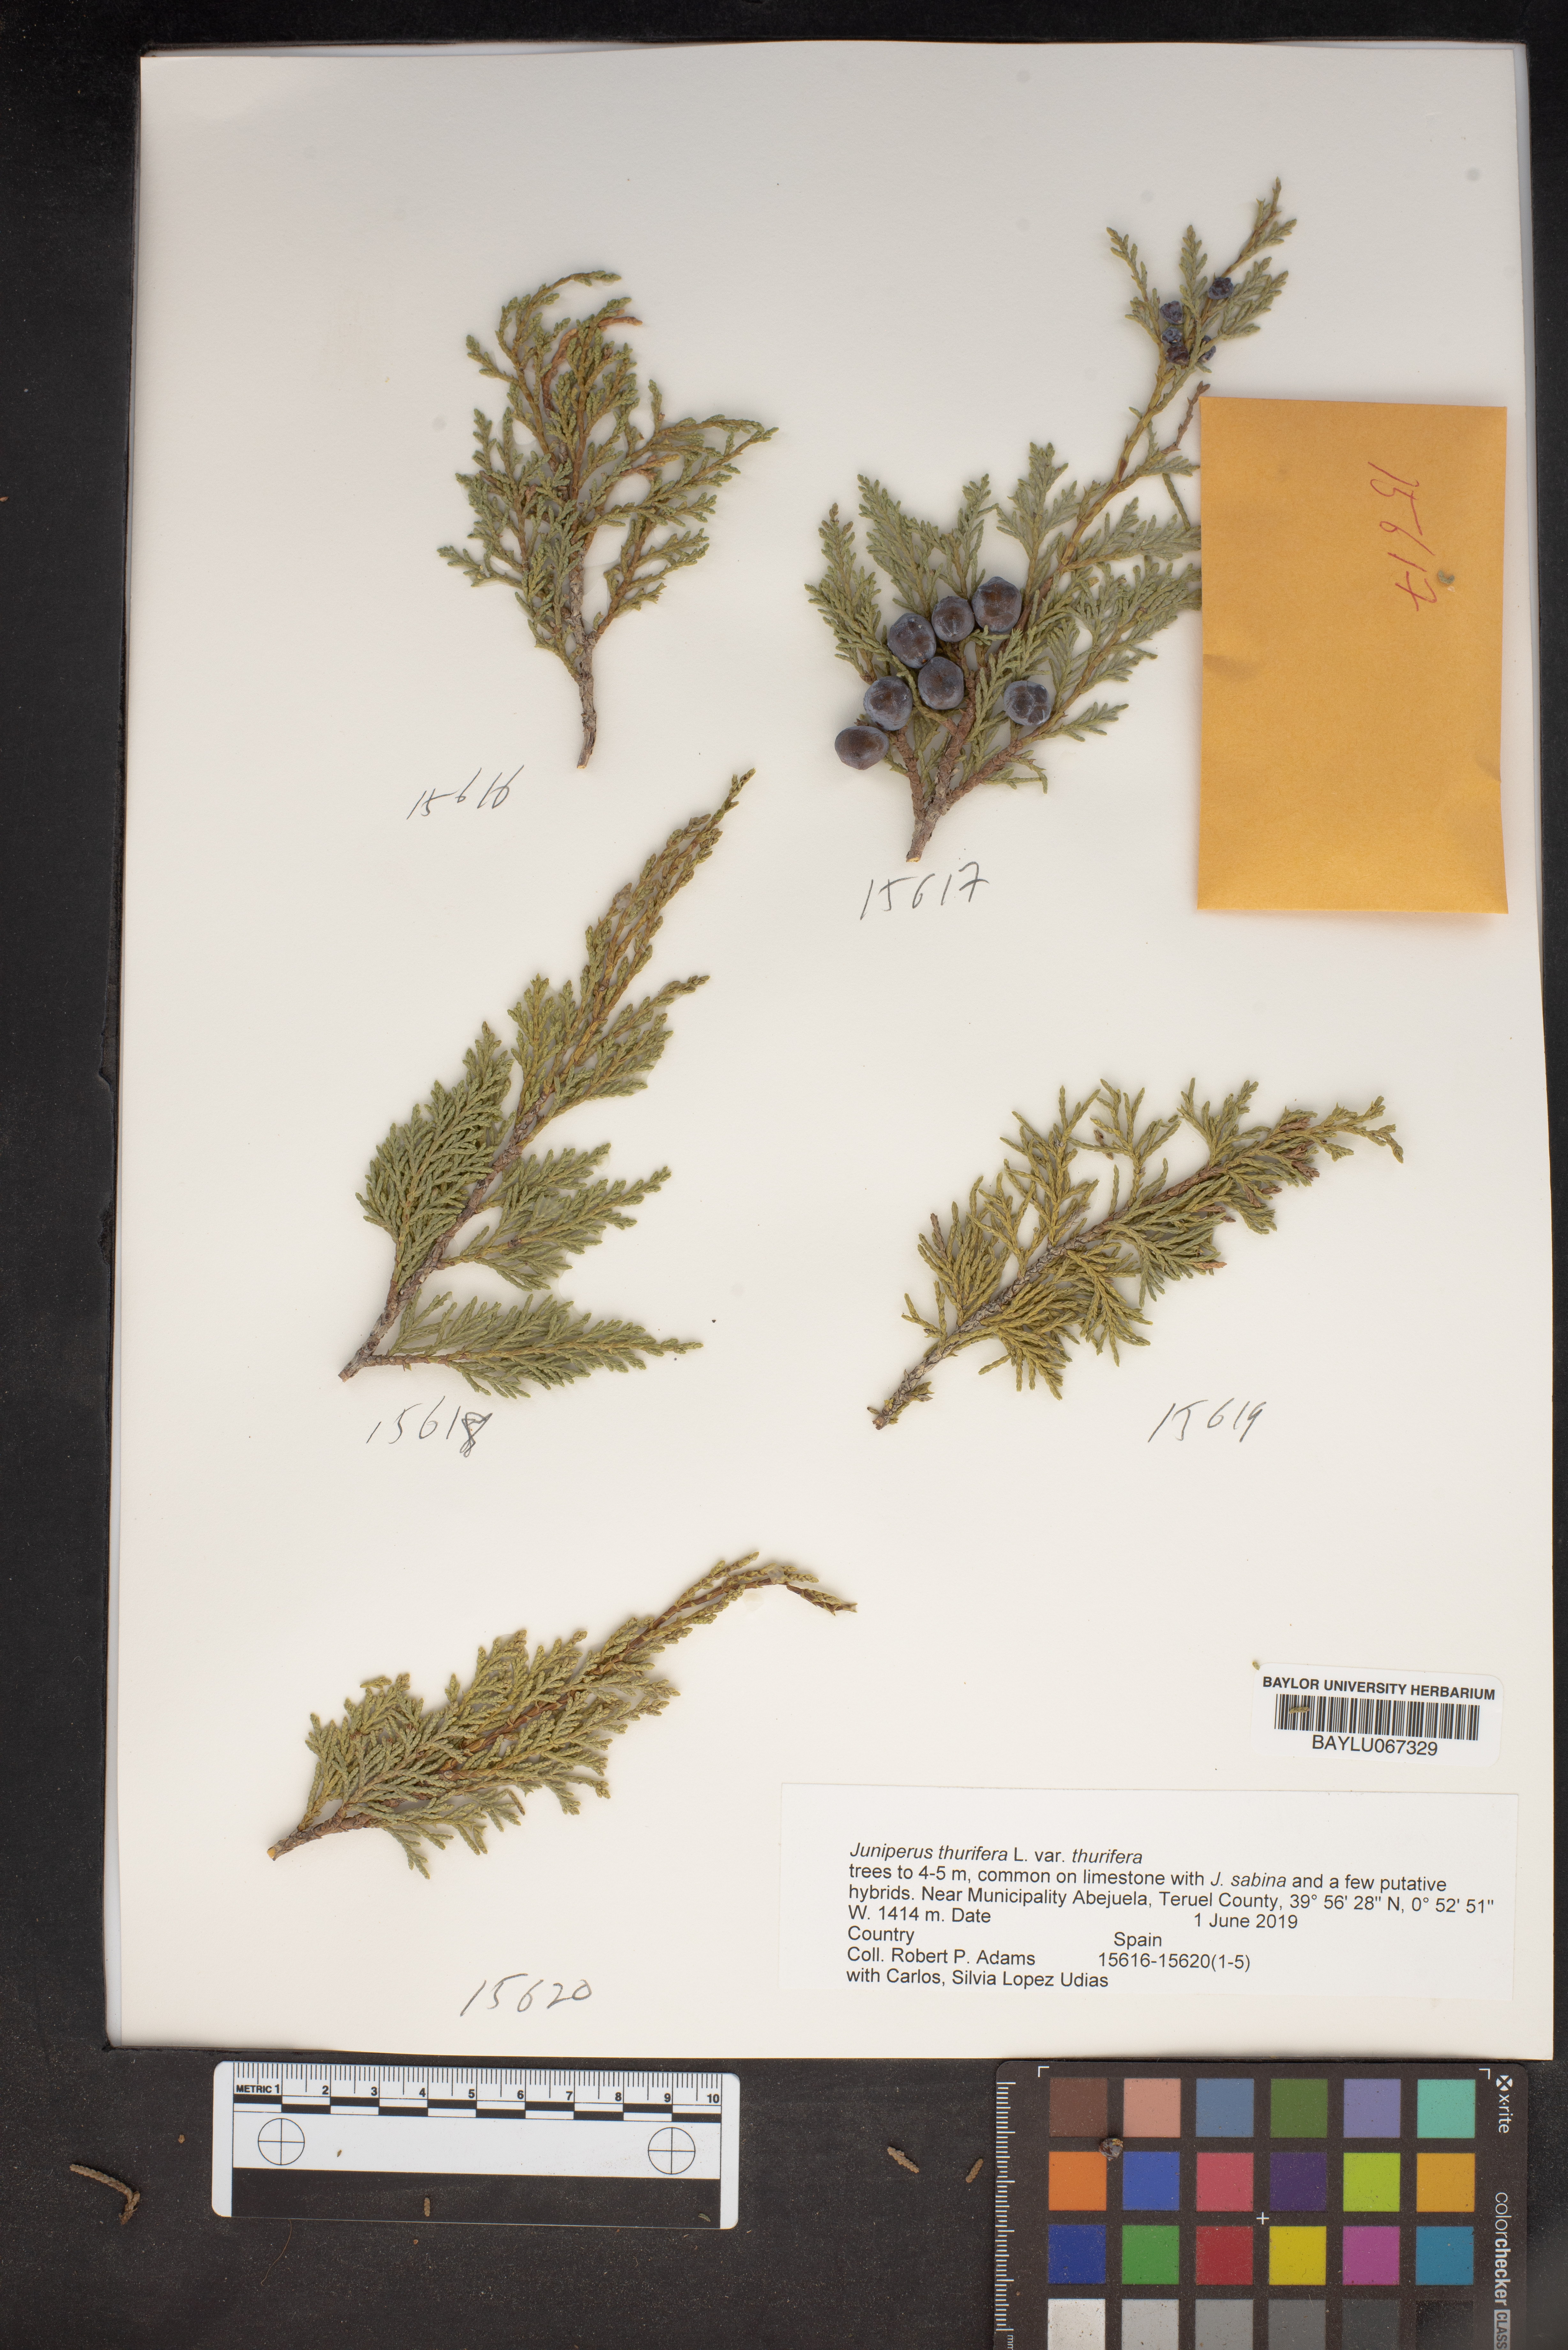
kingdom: Plantae
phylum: Tracheophyta
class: Pinopsida
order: Pinales
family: Cupressaceae
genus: Juniperus
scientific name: Juniperus thurifera
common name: Incense juniper
